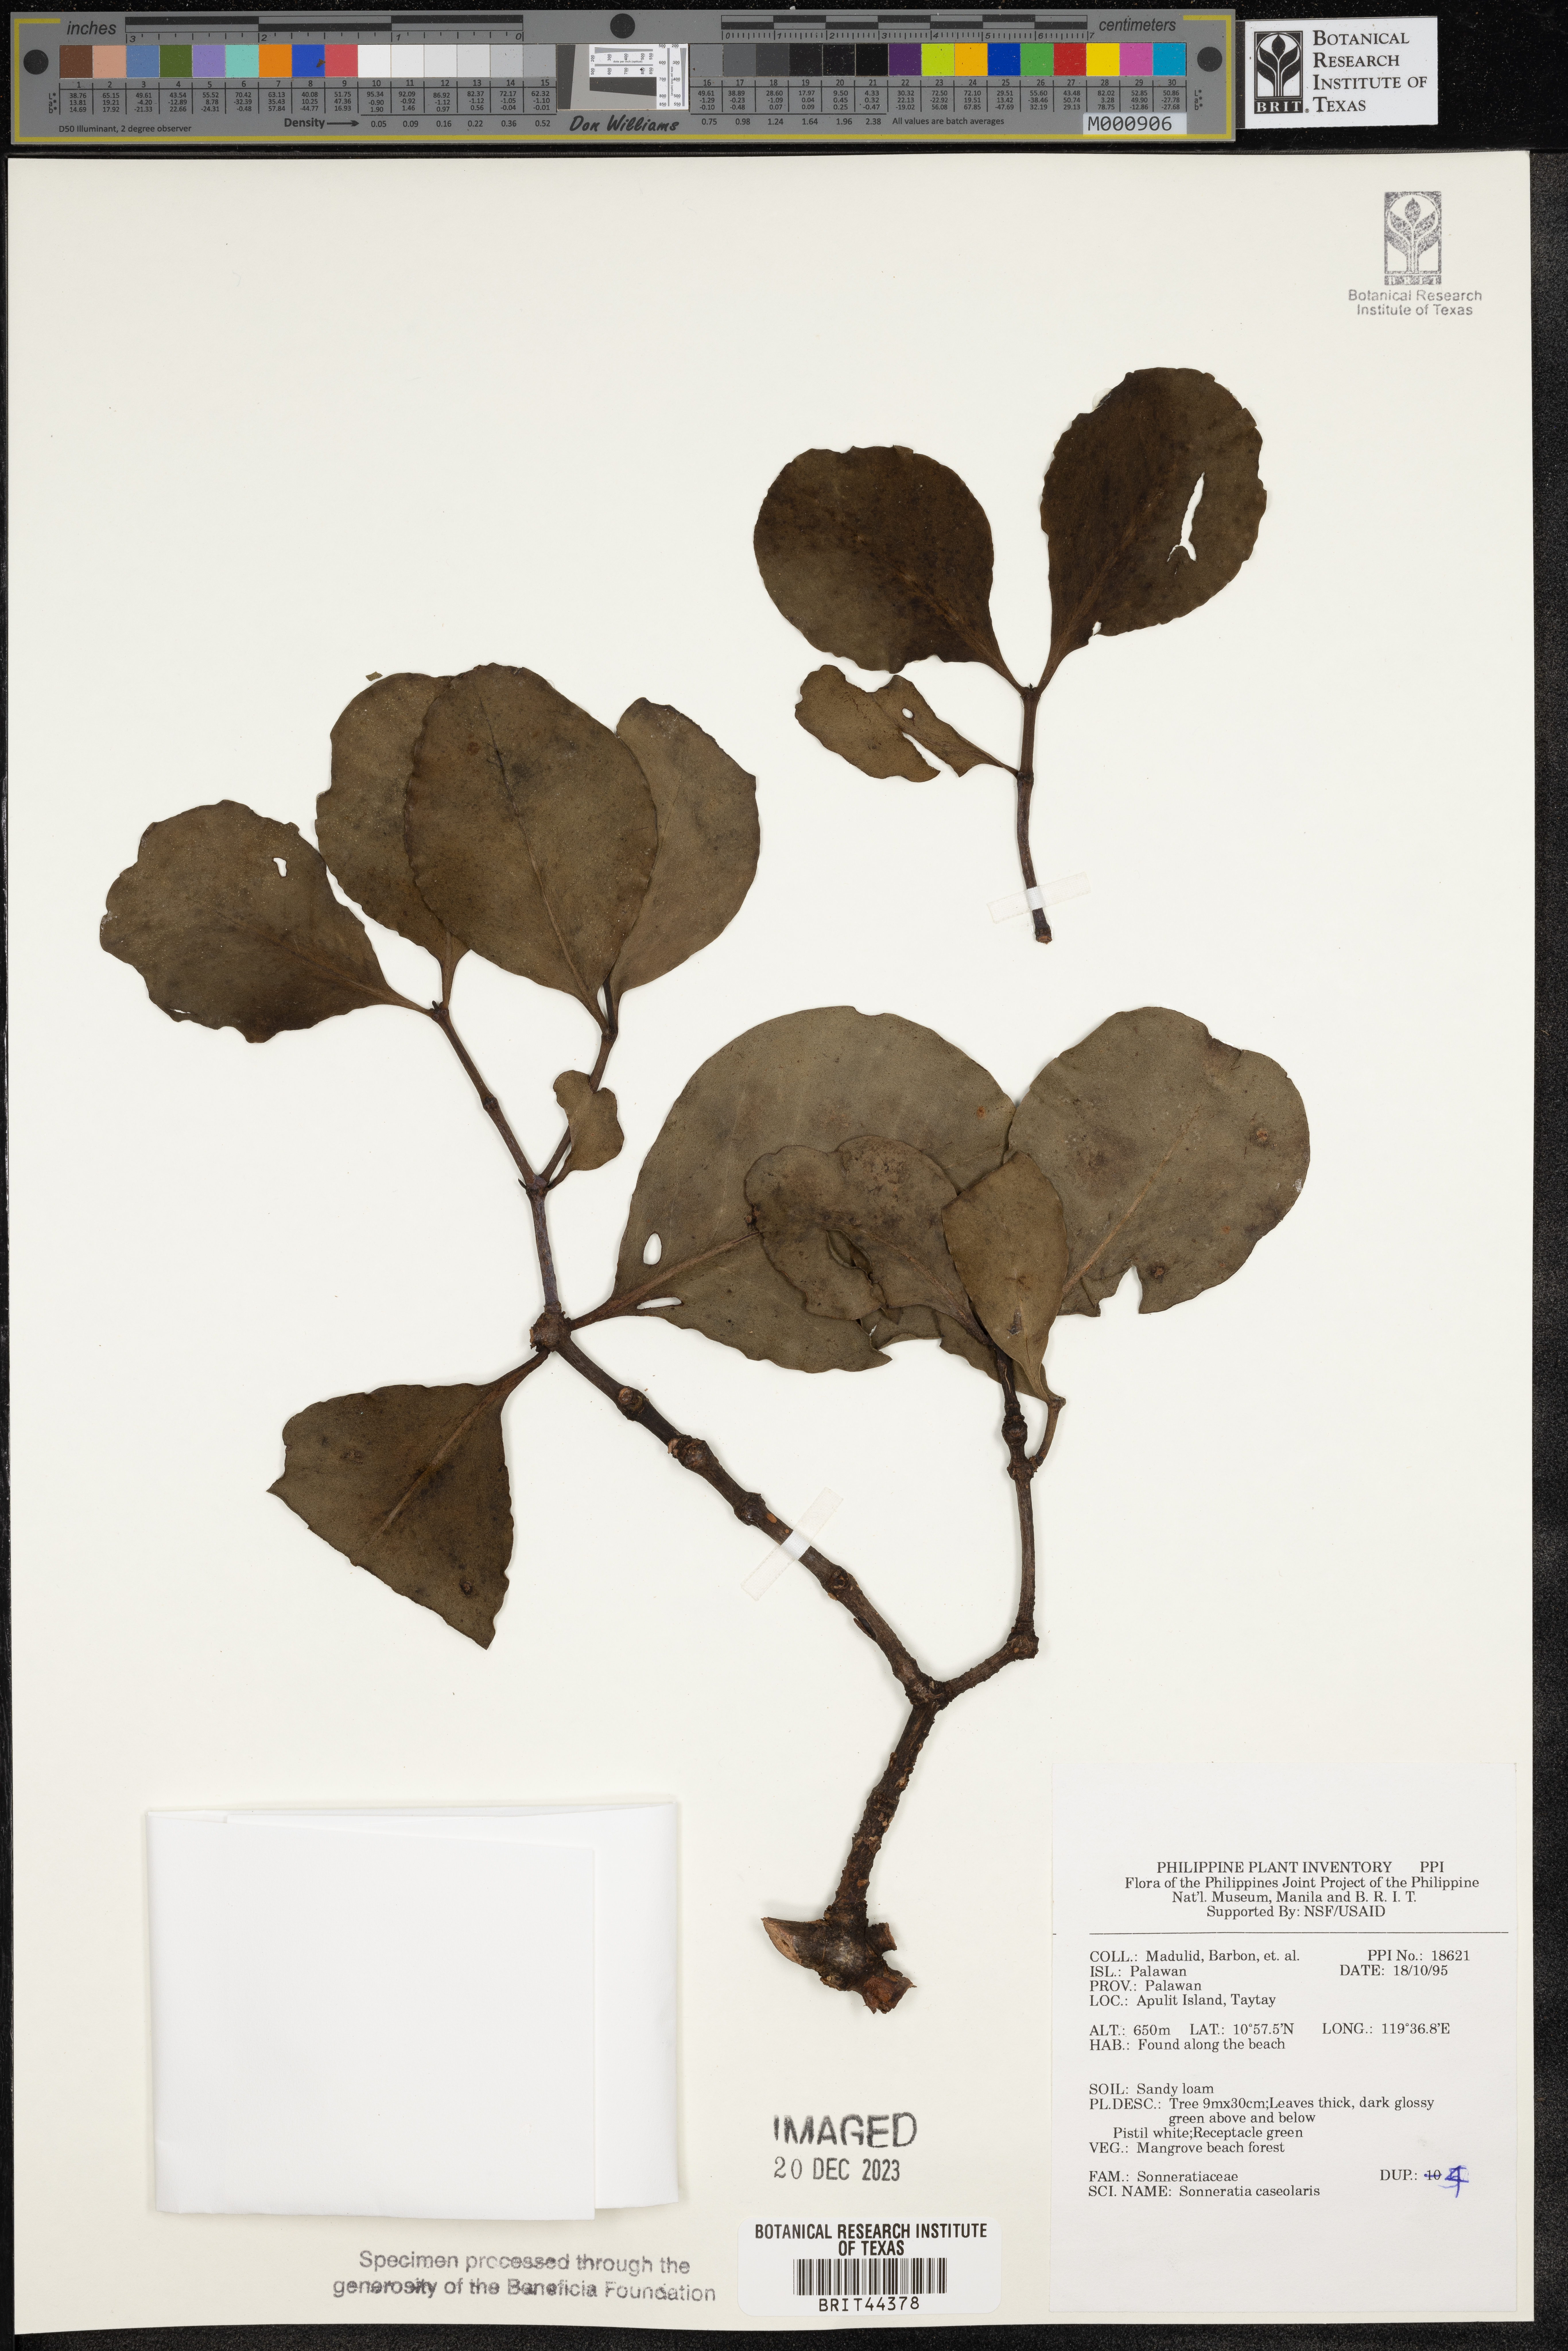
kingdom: Plantae
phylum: Tracheophyta
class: Magnoliopsida
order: Myrtales
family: Lythraceae
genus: Sonneratia
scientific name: Sonneratia caseolaris
